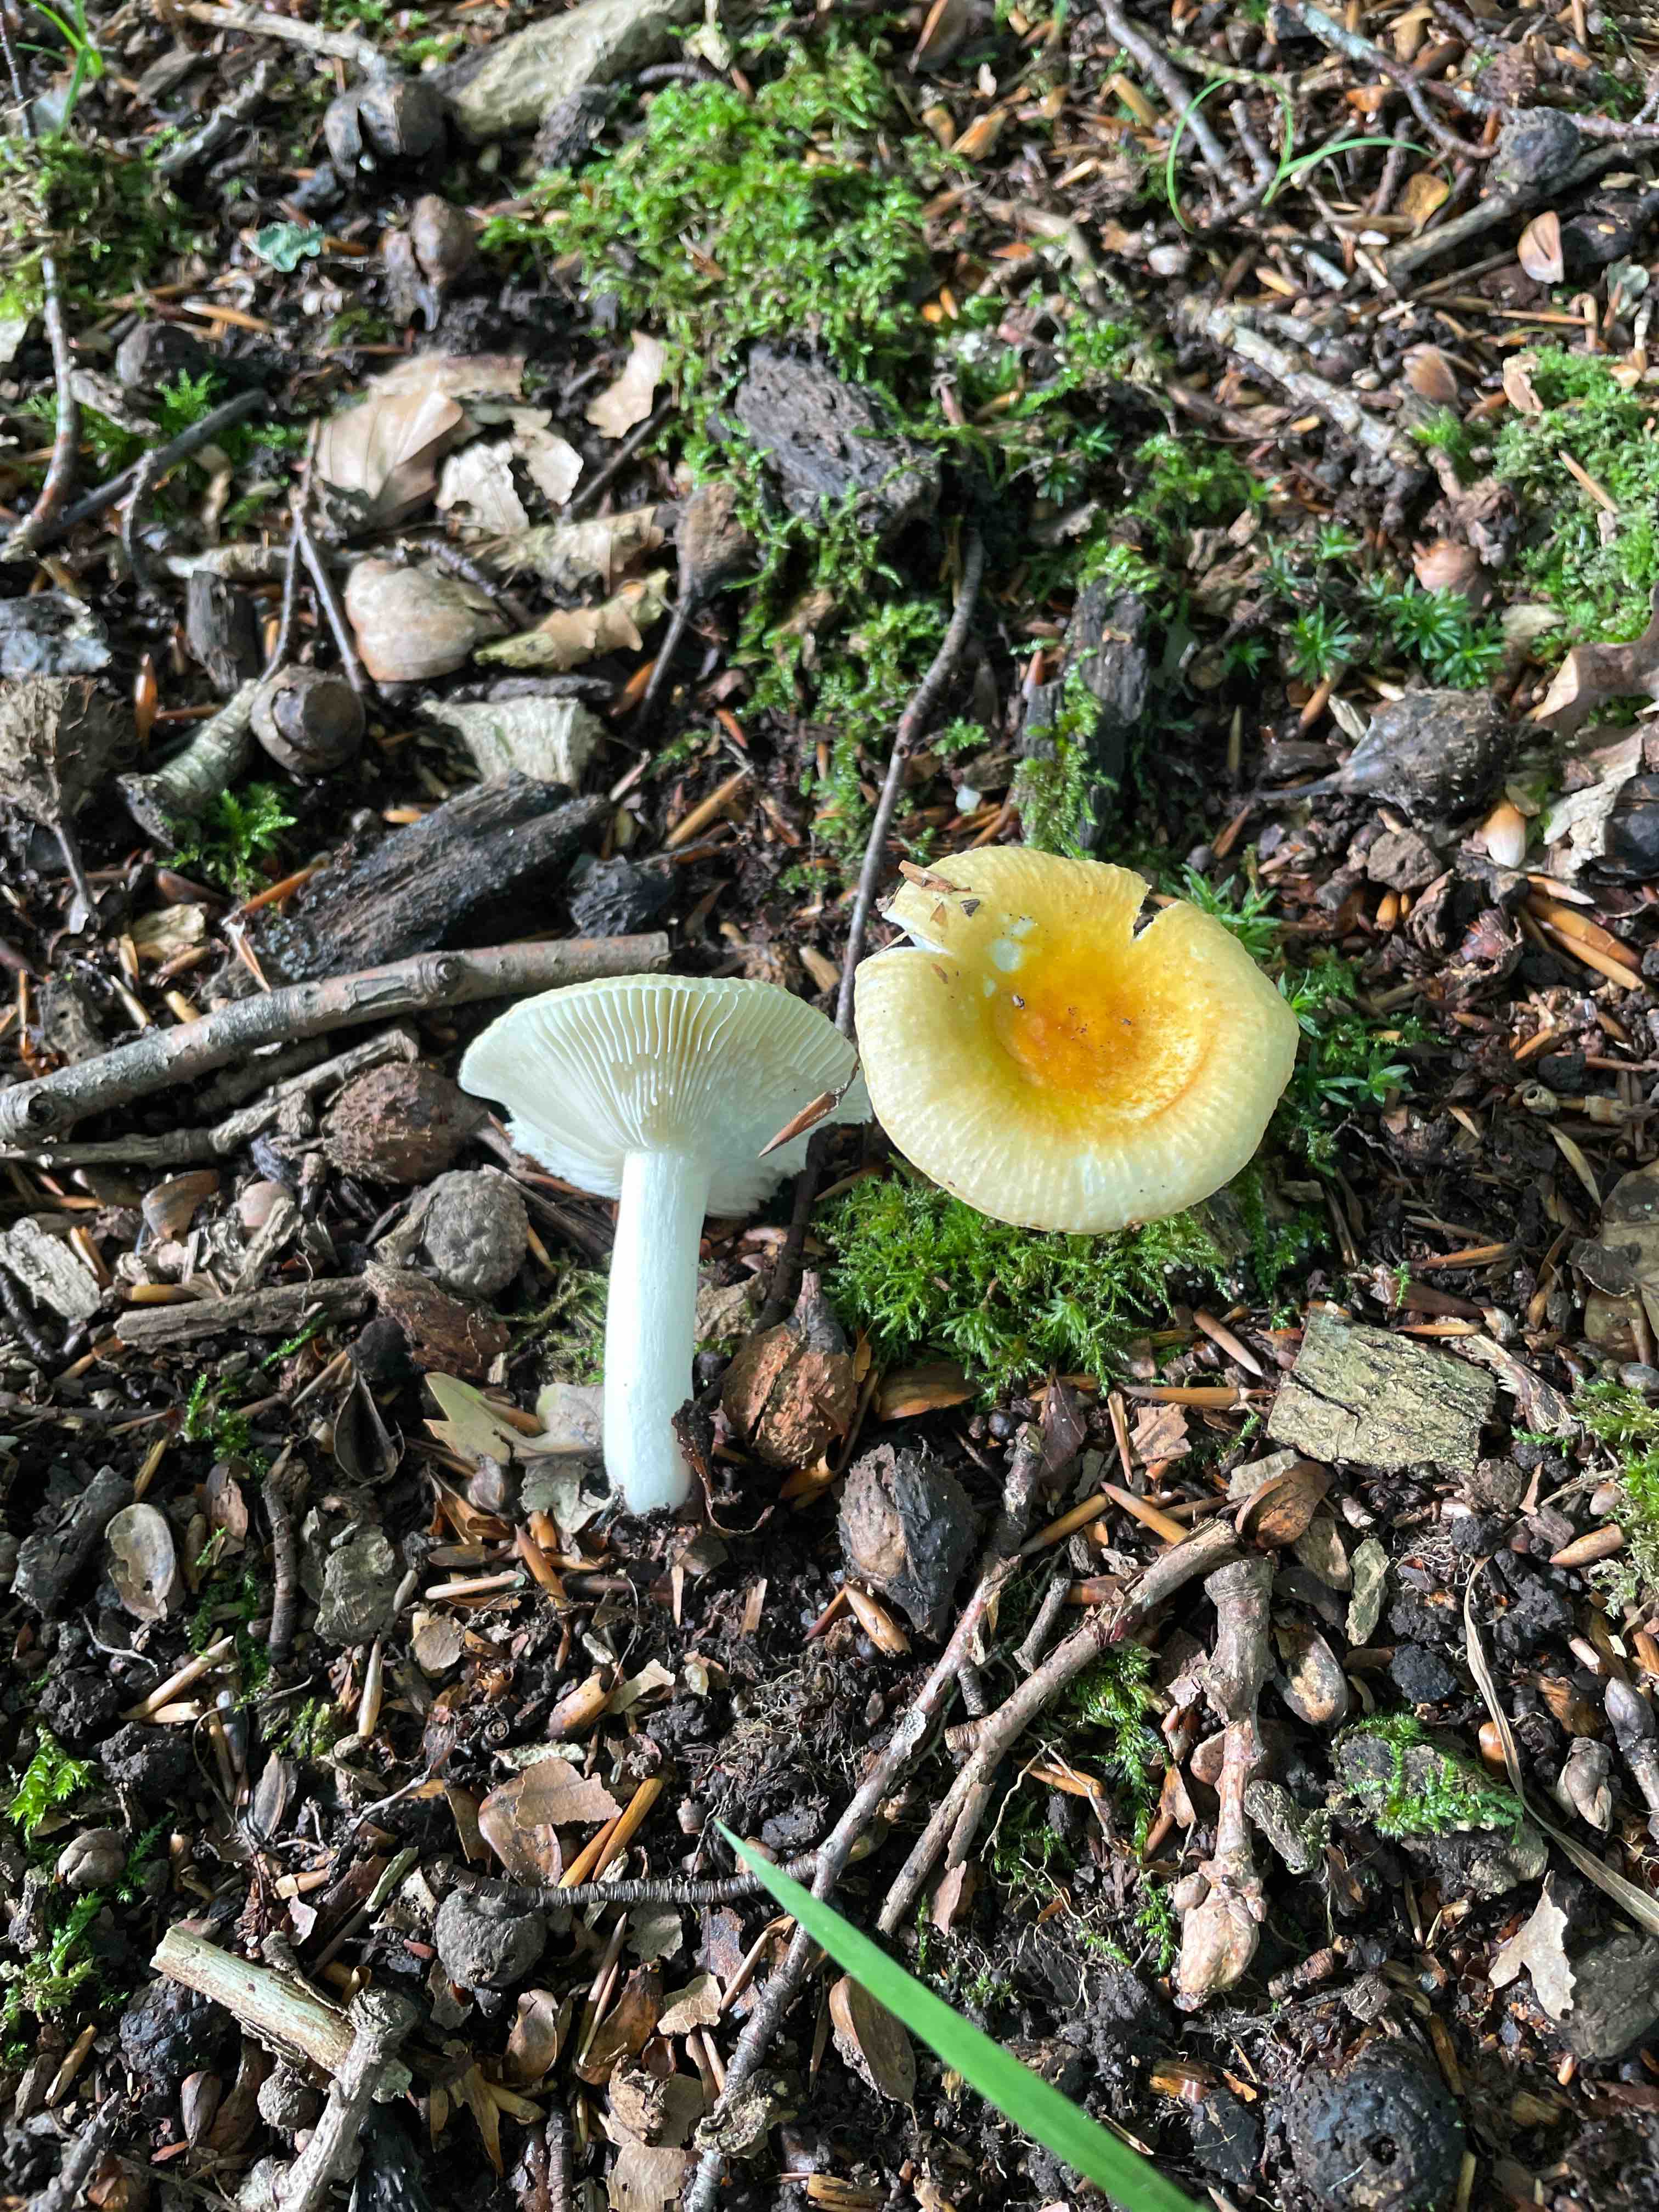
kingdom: Fungi
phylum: Basidiomycota
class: Agaricomycetes
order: Russulales
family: Russulaceae
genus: Russula
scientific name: Russula solaris
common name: sol-skørhat
